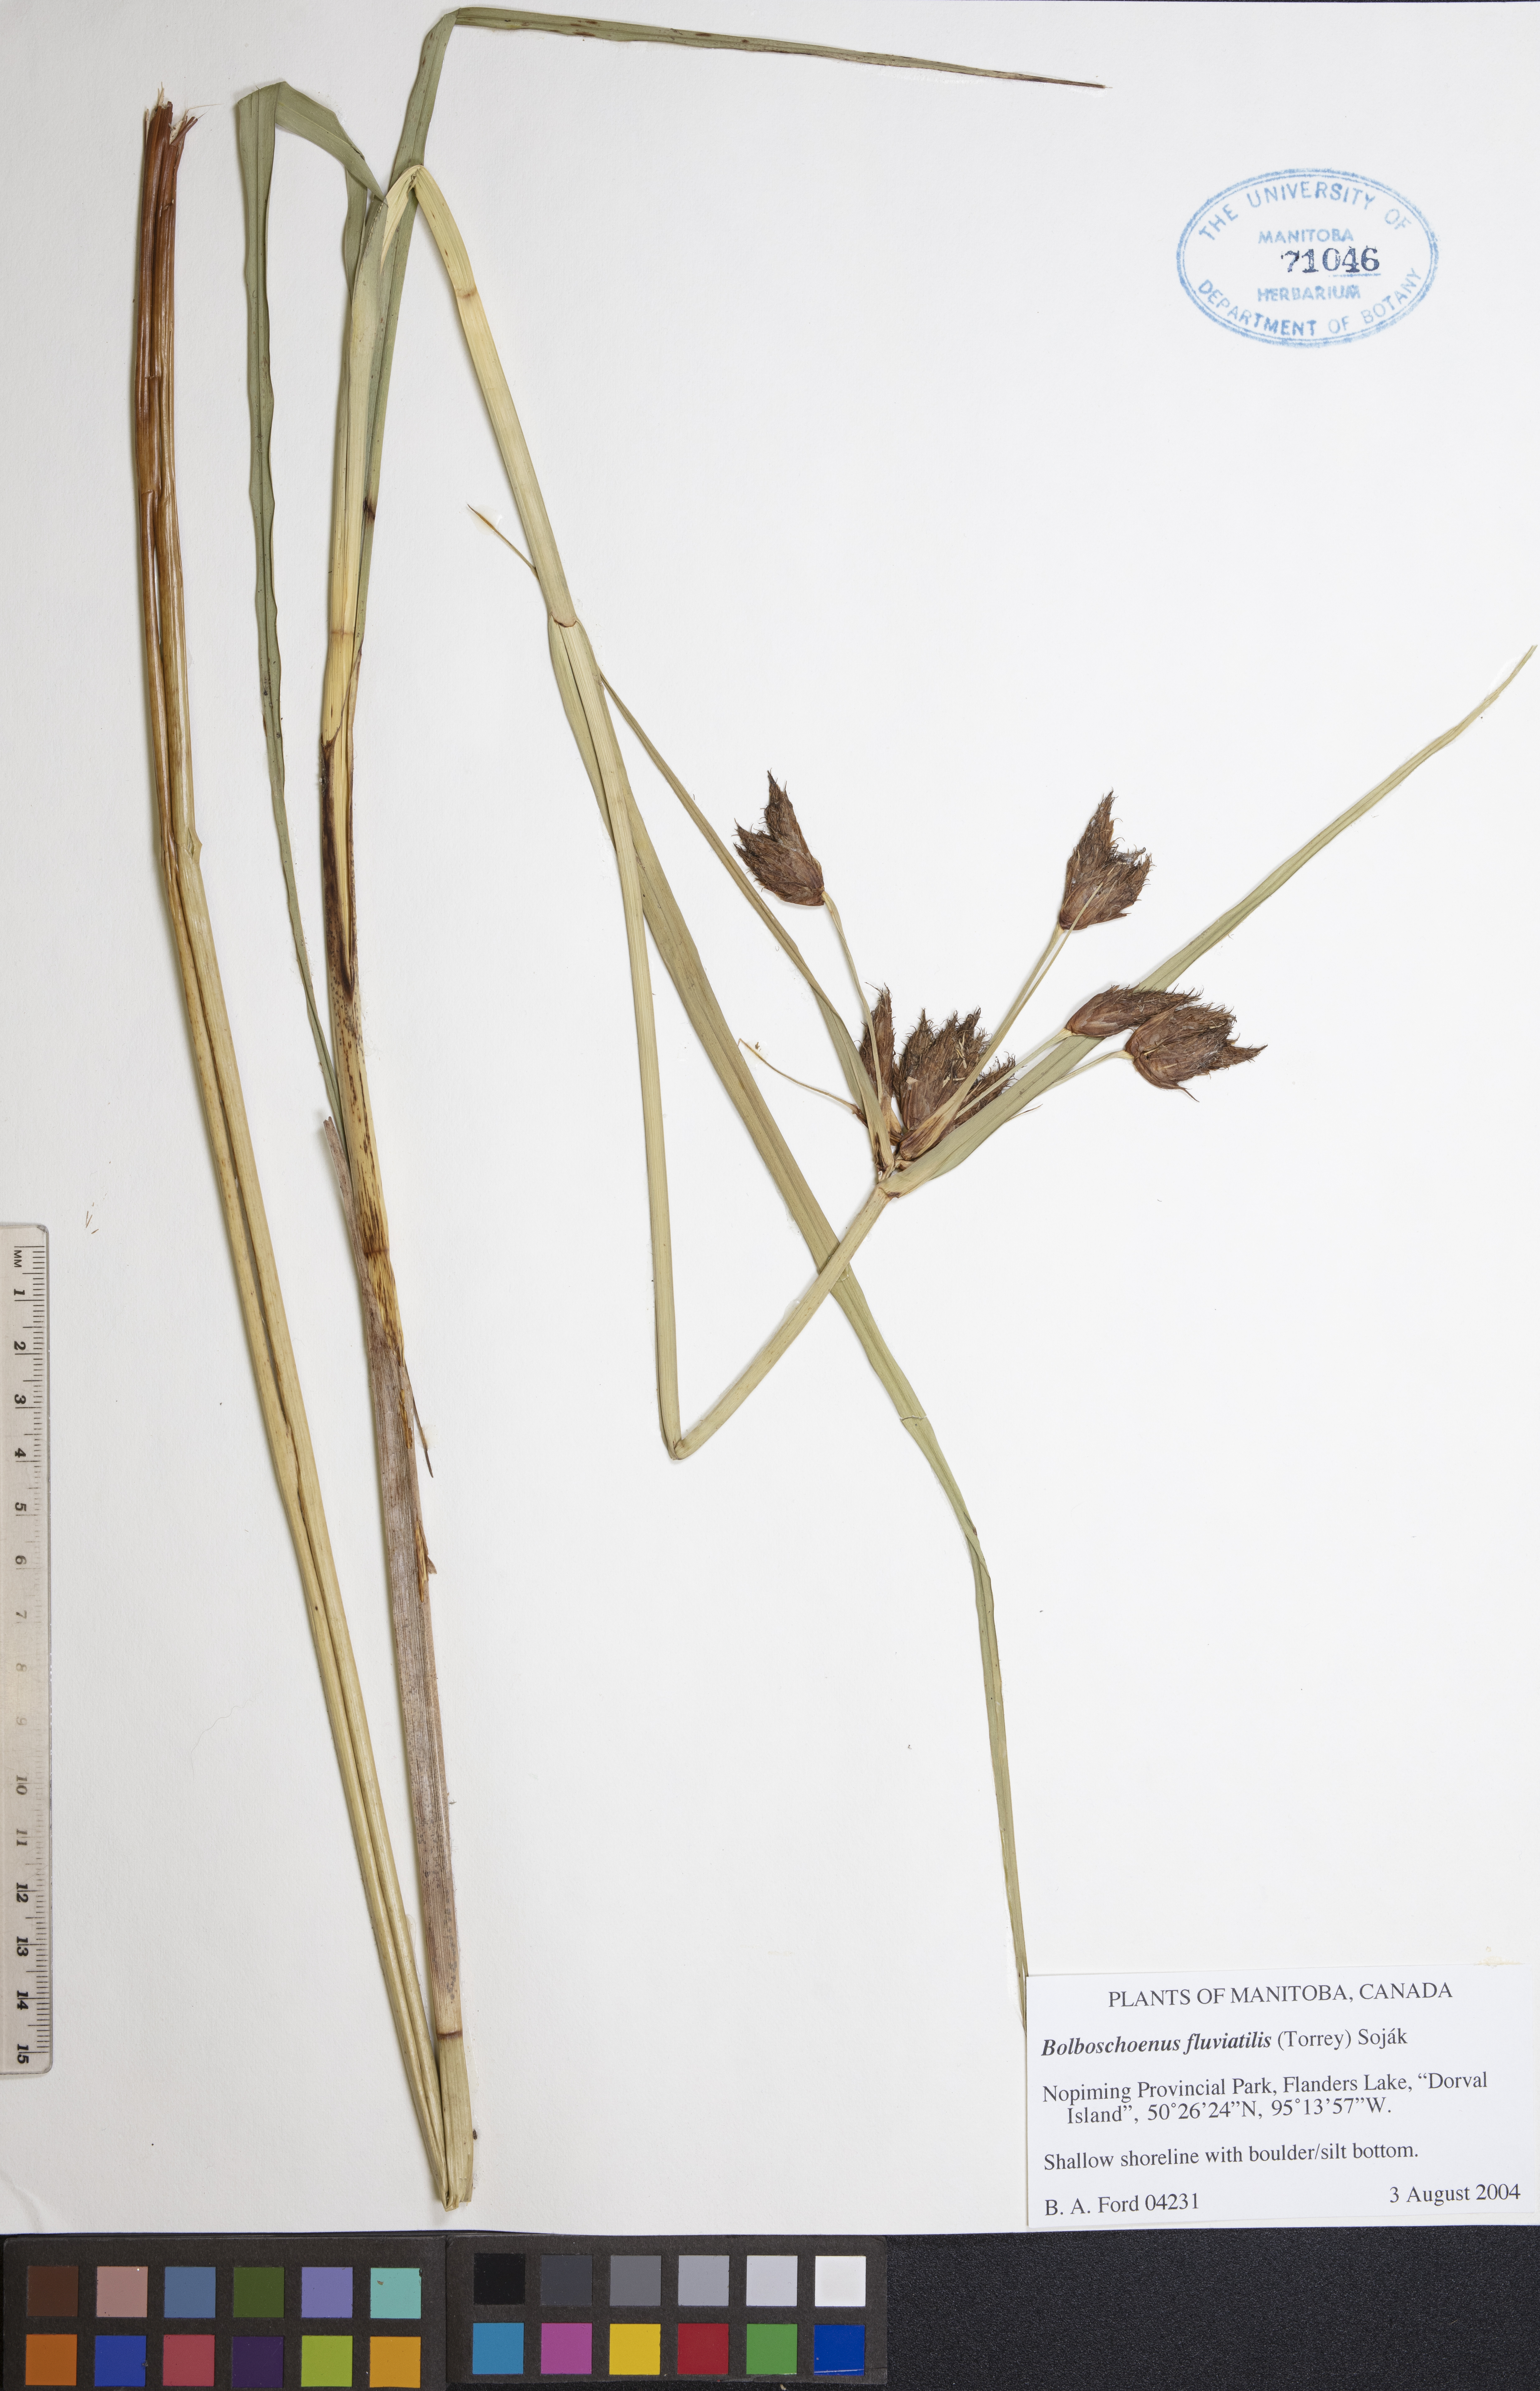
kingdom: Plantae
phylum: Tracheophyta
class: Liliopsida
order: Poales
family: Cyperaceae
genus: Bolboschoenus
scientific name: Bolboschoenus fluviatilis
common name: River bulrush
